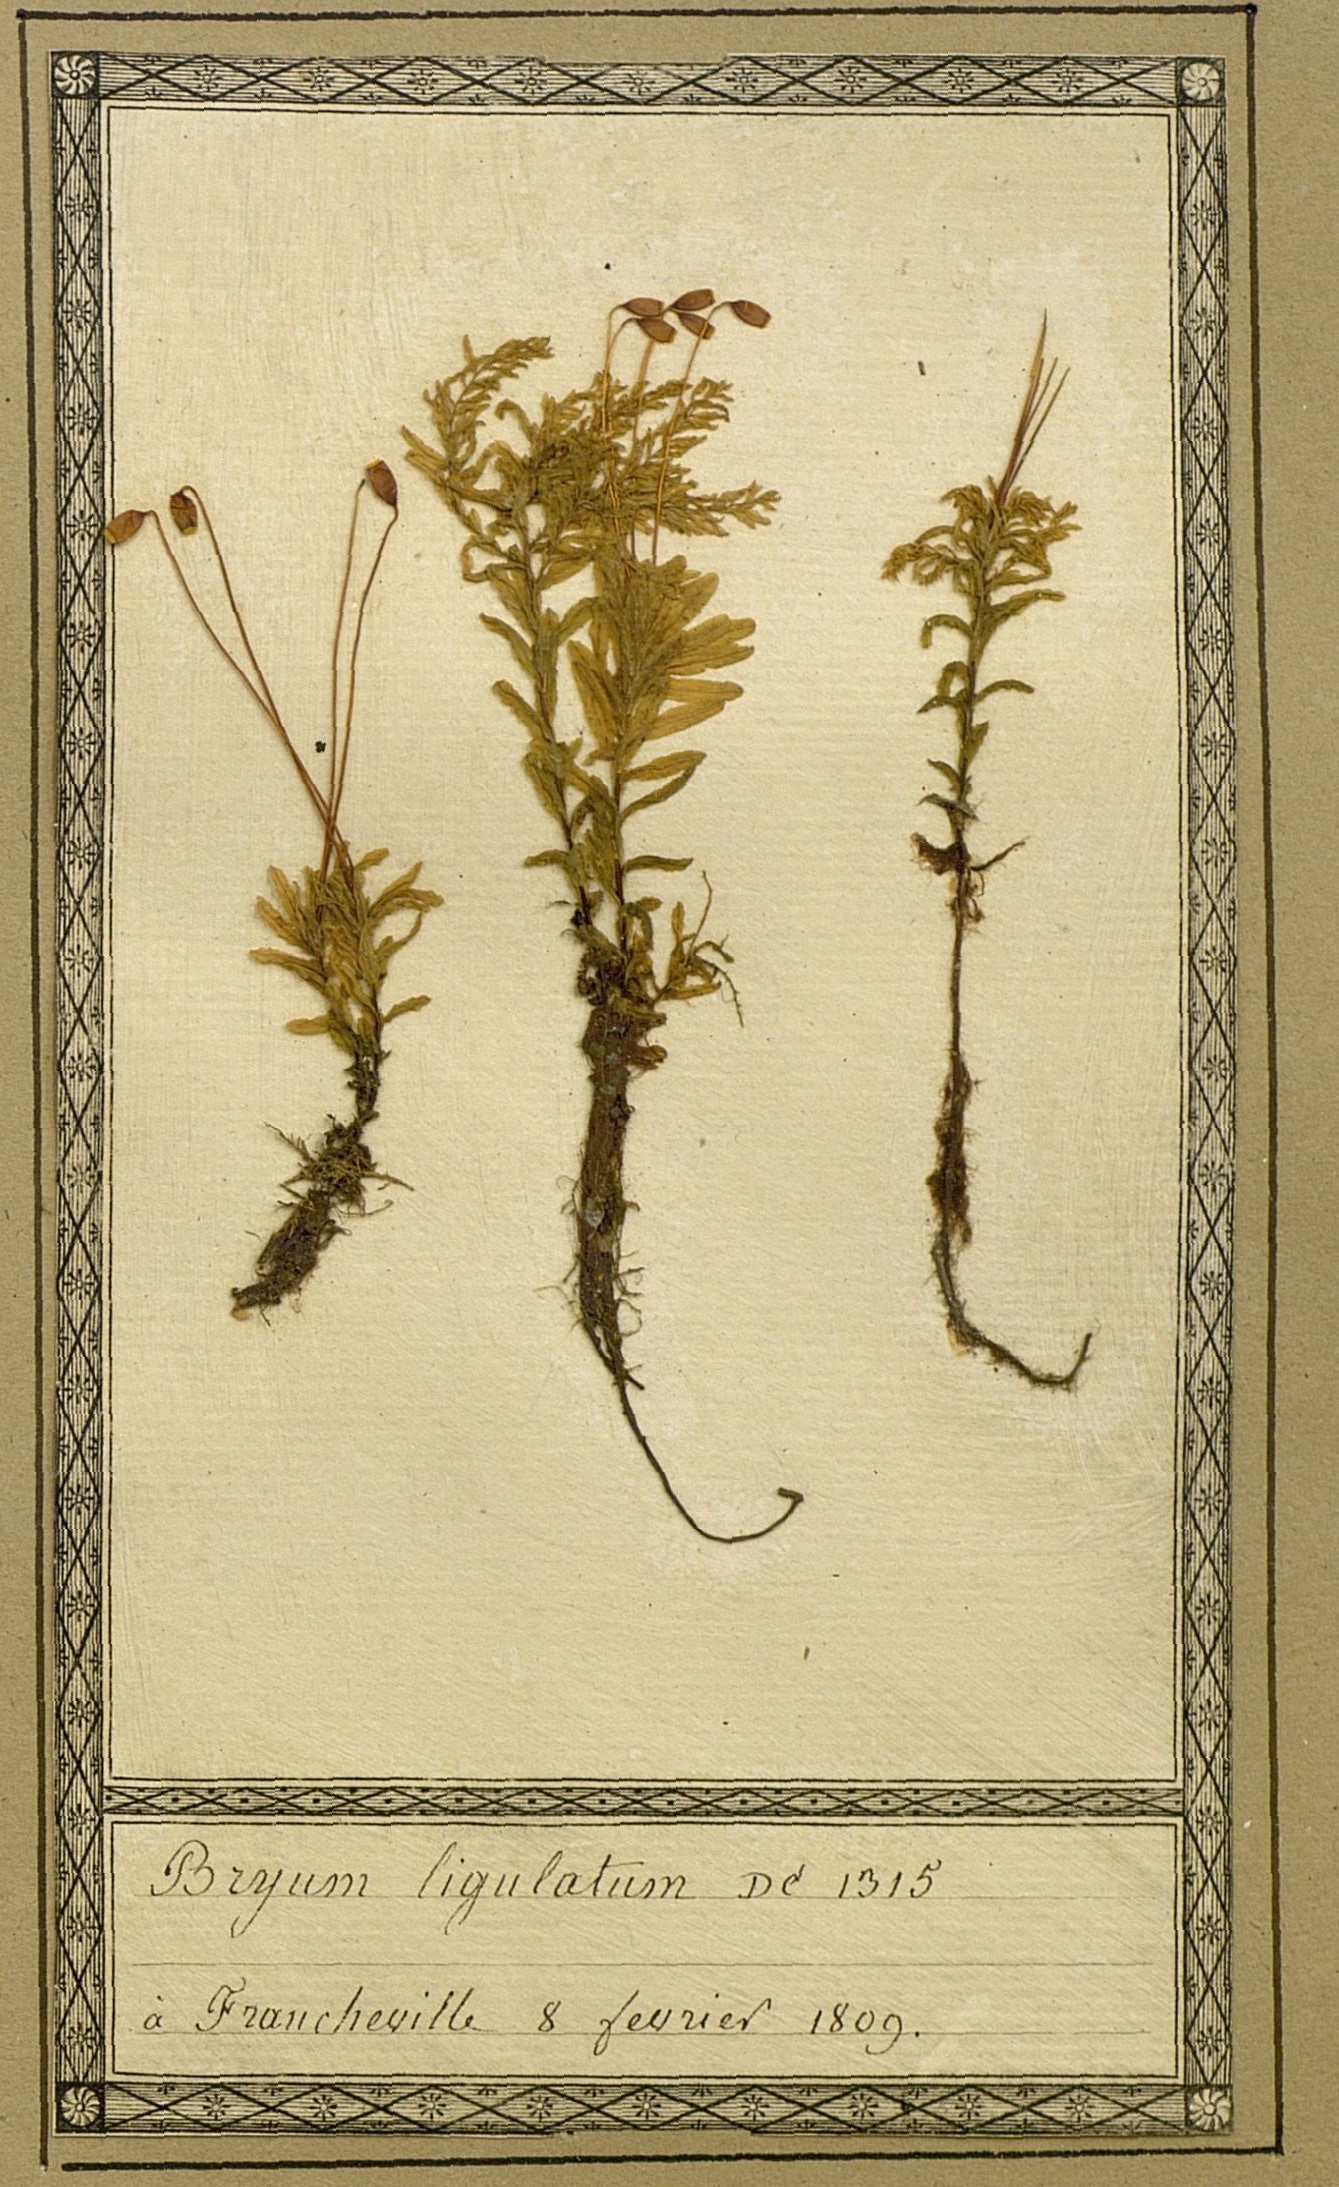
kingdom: Plantae
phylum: Bryophyta
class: Bryopsida
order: Bryales
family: Mniaceae
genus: Plagiomnium
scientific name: Plagiomnium undulatum
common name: Hart's-tongue thyme-moss
